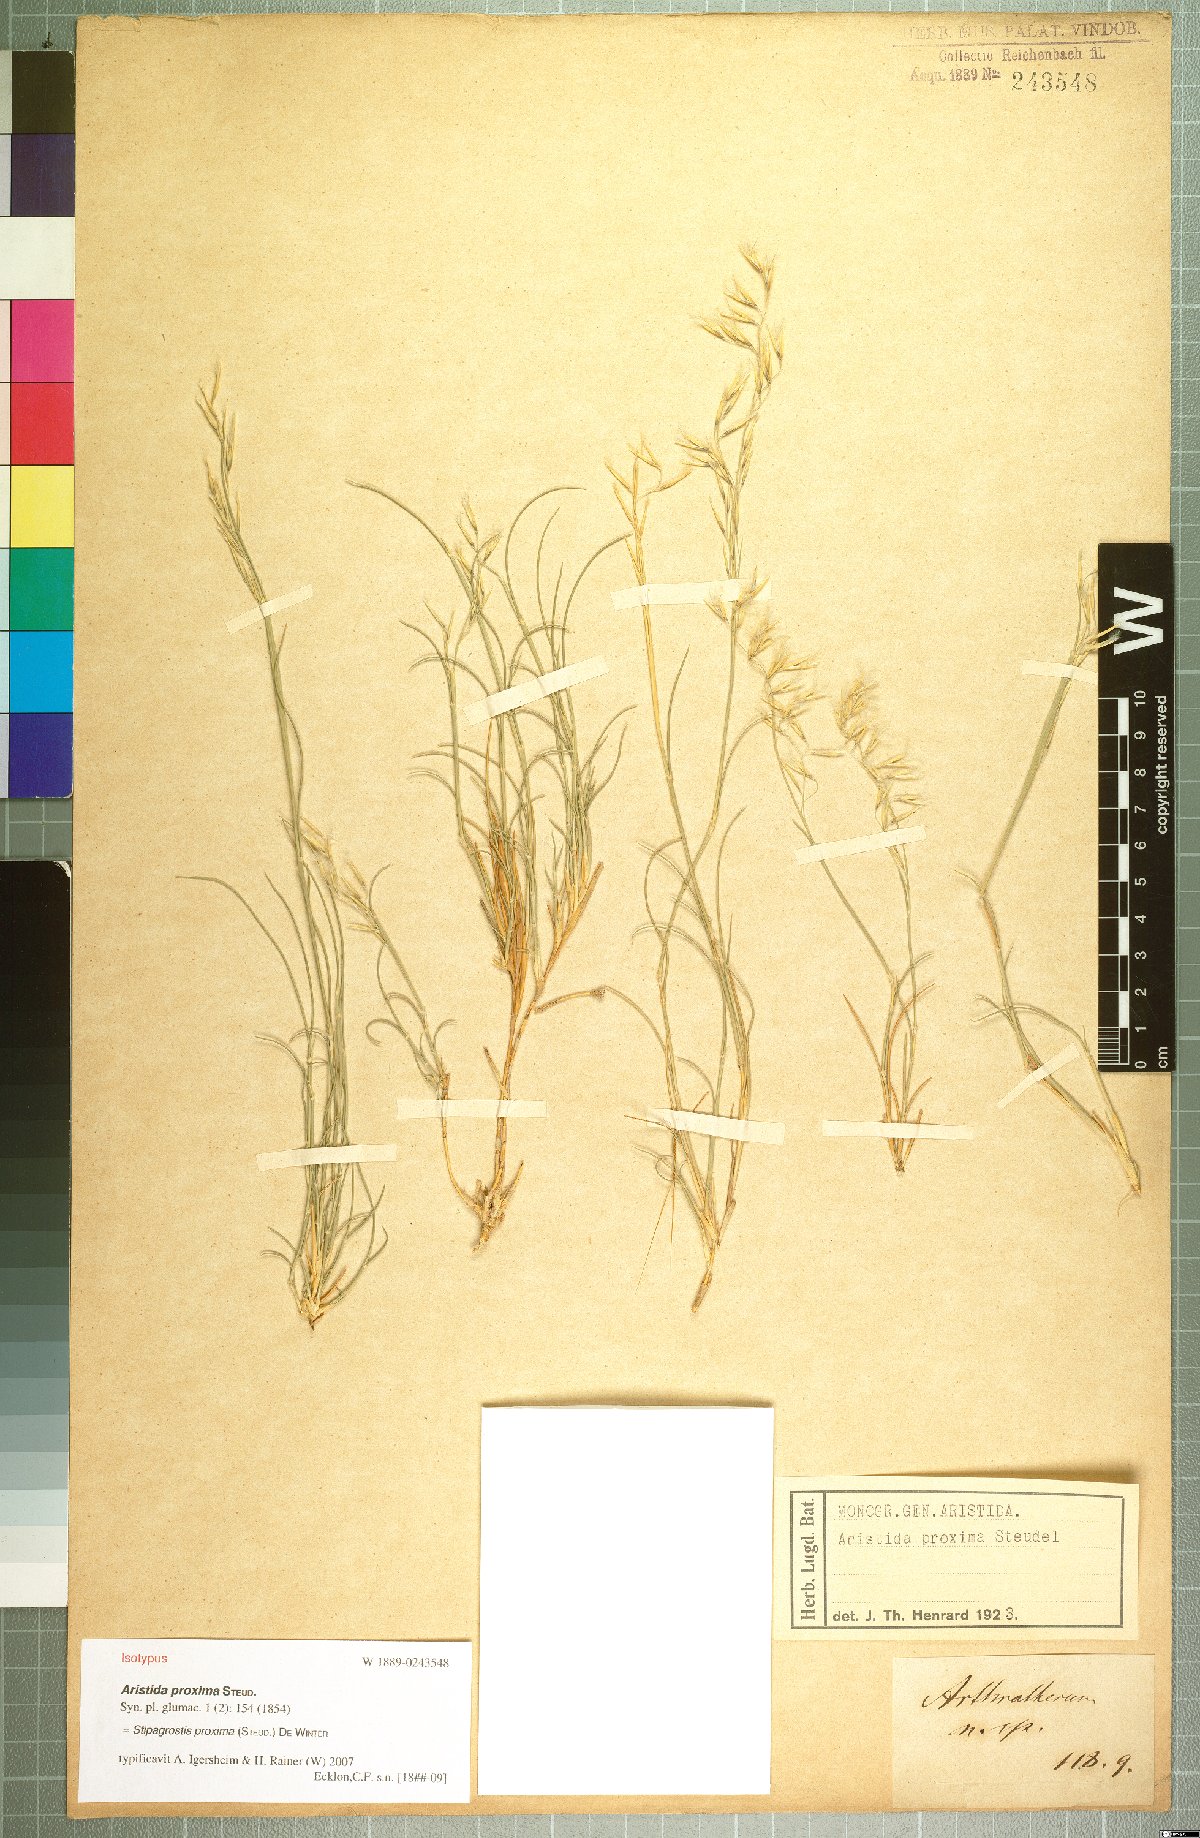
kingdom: Plantae
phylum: Tracheophyta
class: Liliopsida
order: Poales
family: Poaceae
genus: Stipagrostis
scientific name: Stipagrostis proxima
